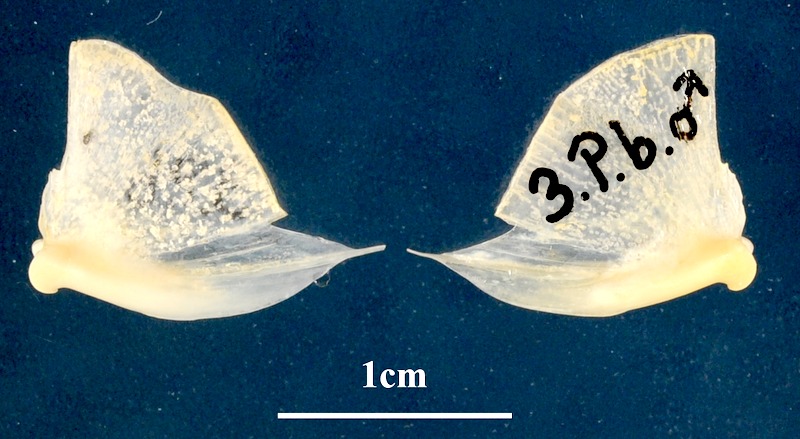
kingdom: Animalia
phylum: Chordata
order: Perciformes
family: Sparidae
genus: Pagellus
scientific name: Pagellus bogaraveo
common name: Red sea-bream
